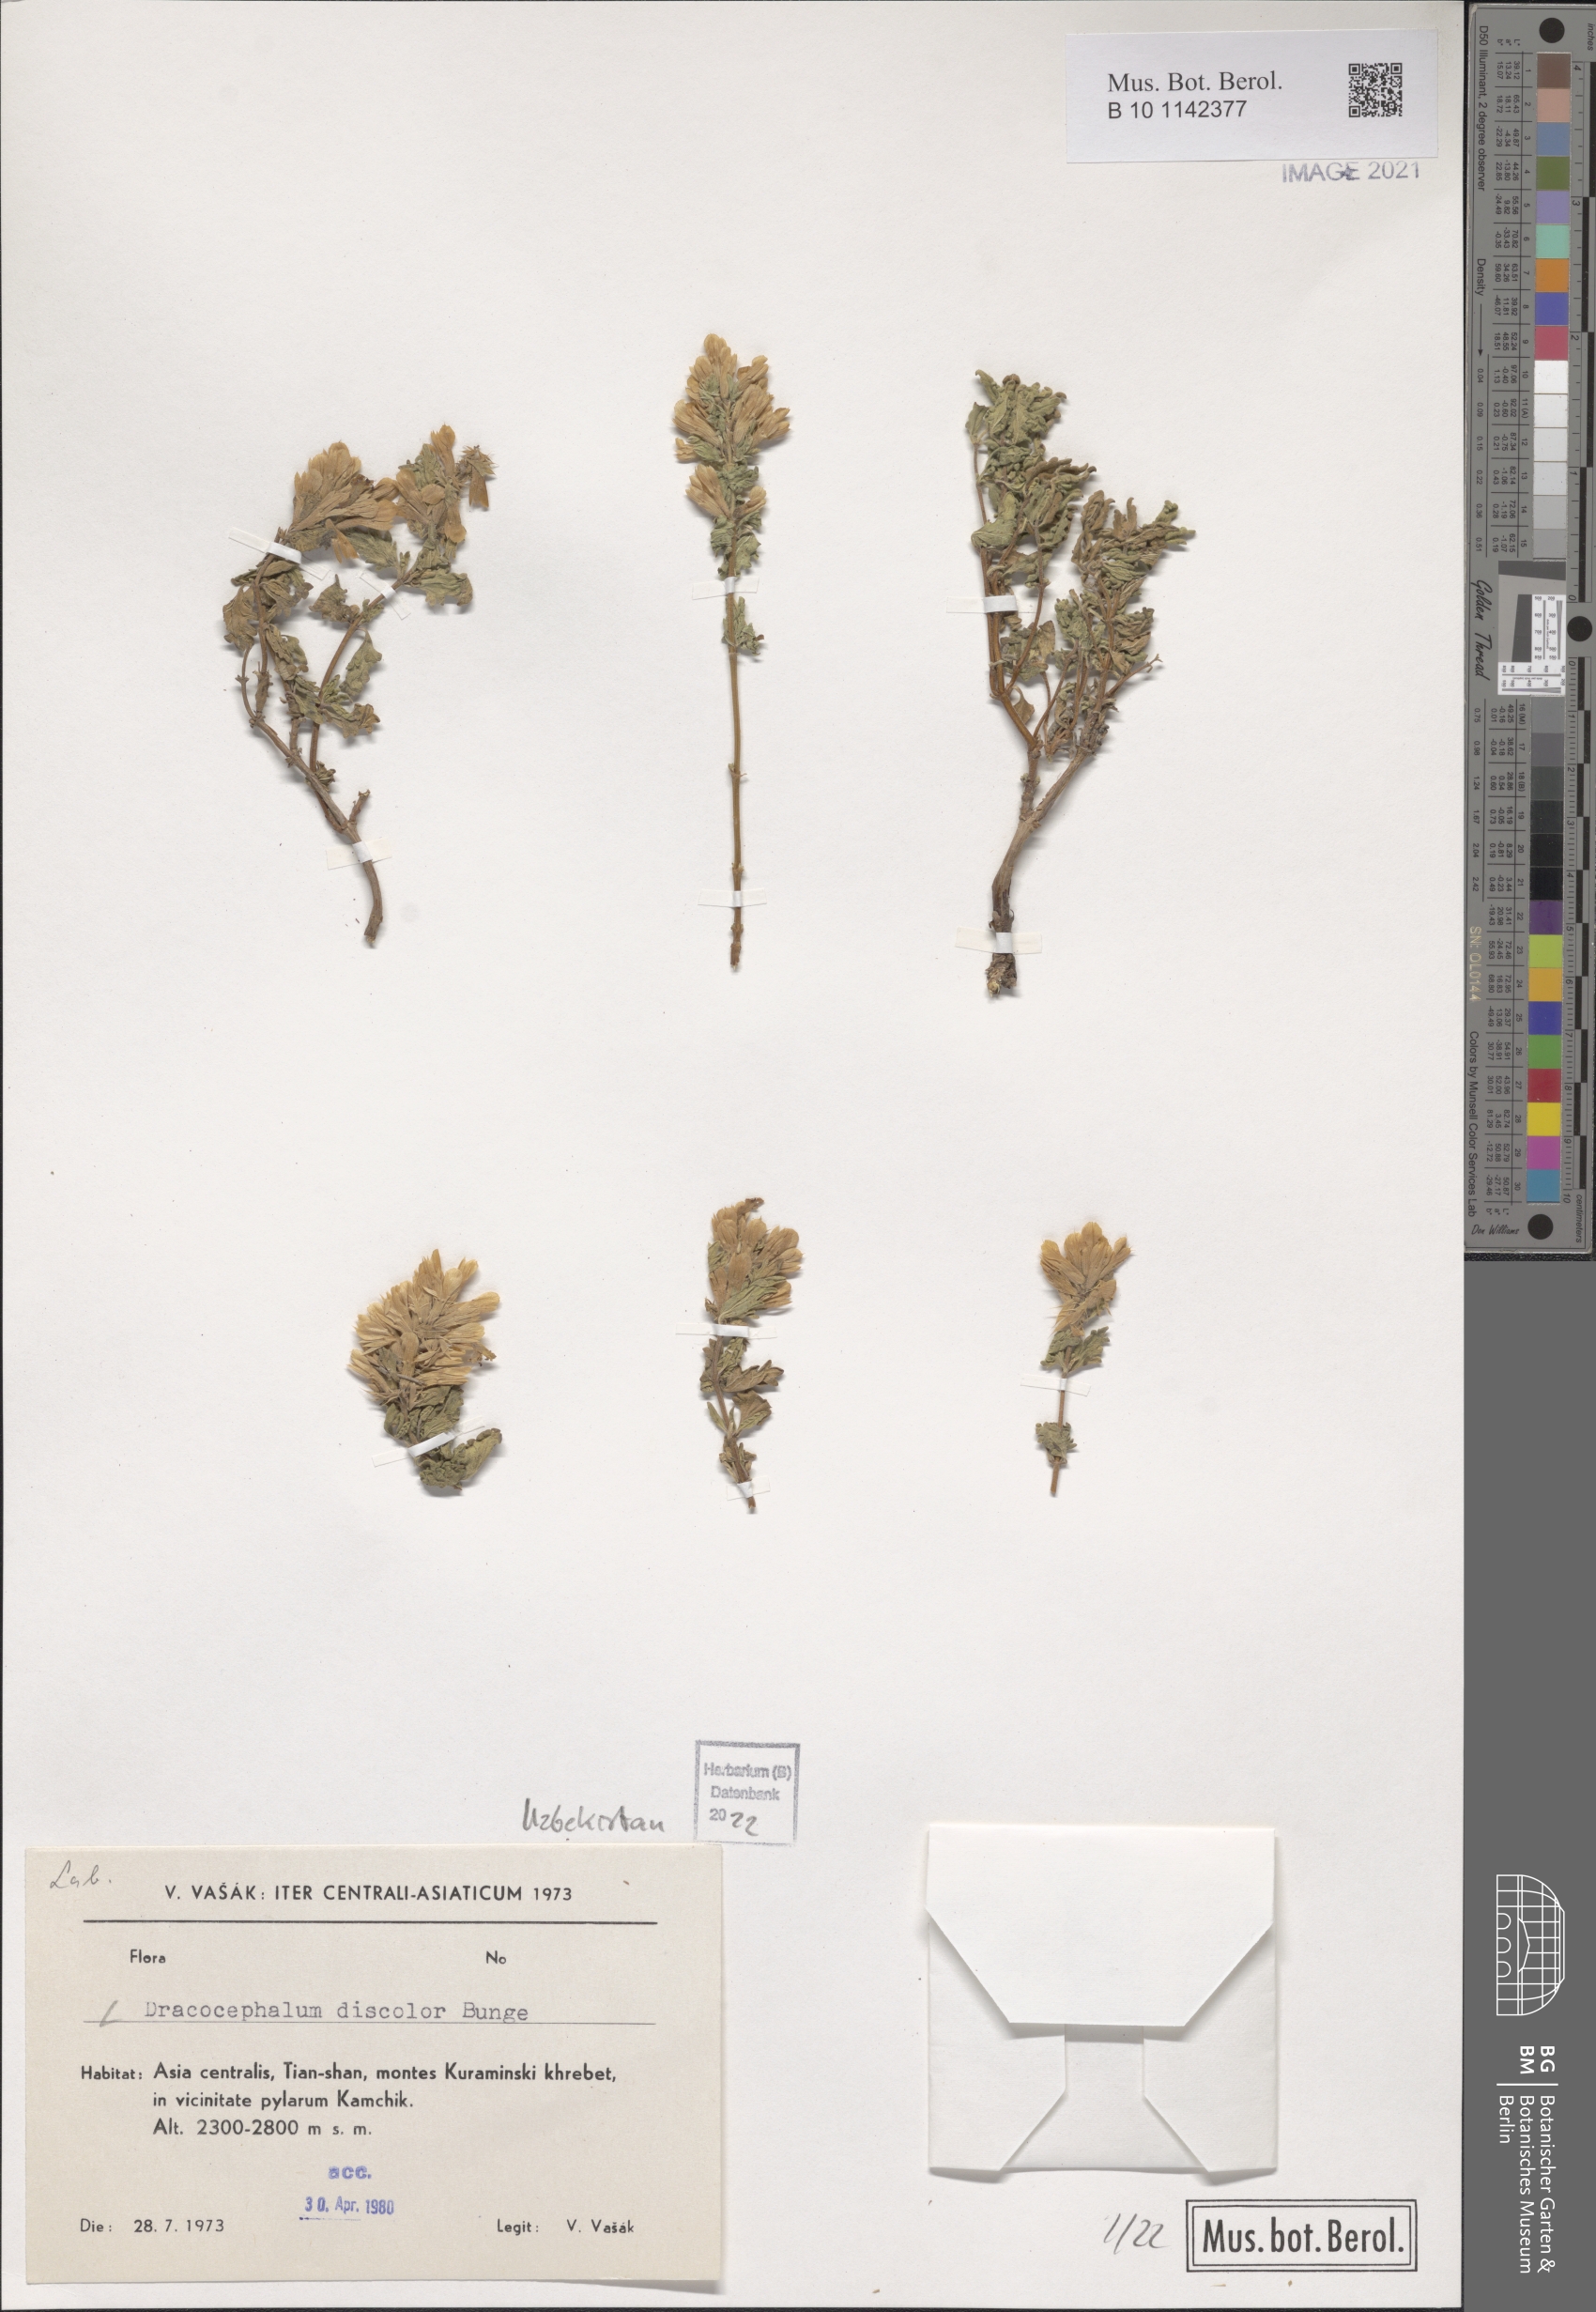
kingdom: Plantae
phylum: Tracheophyta
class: Magnoliopsida
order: Lamiales
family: Lamiaceae
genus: Dracocephalum
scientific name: Dracocephalum discolor
